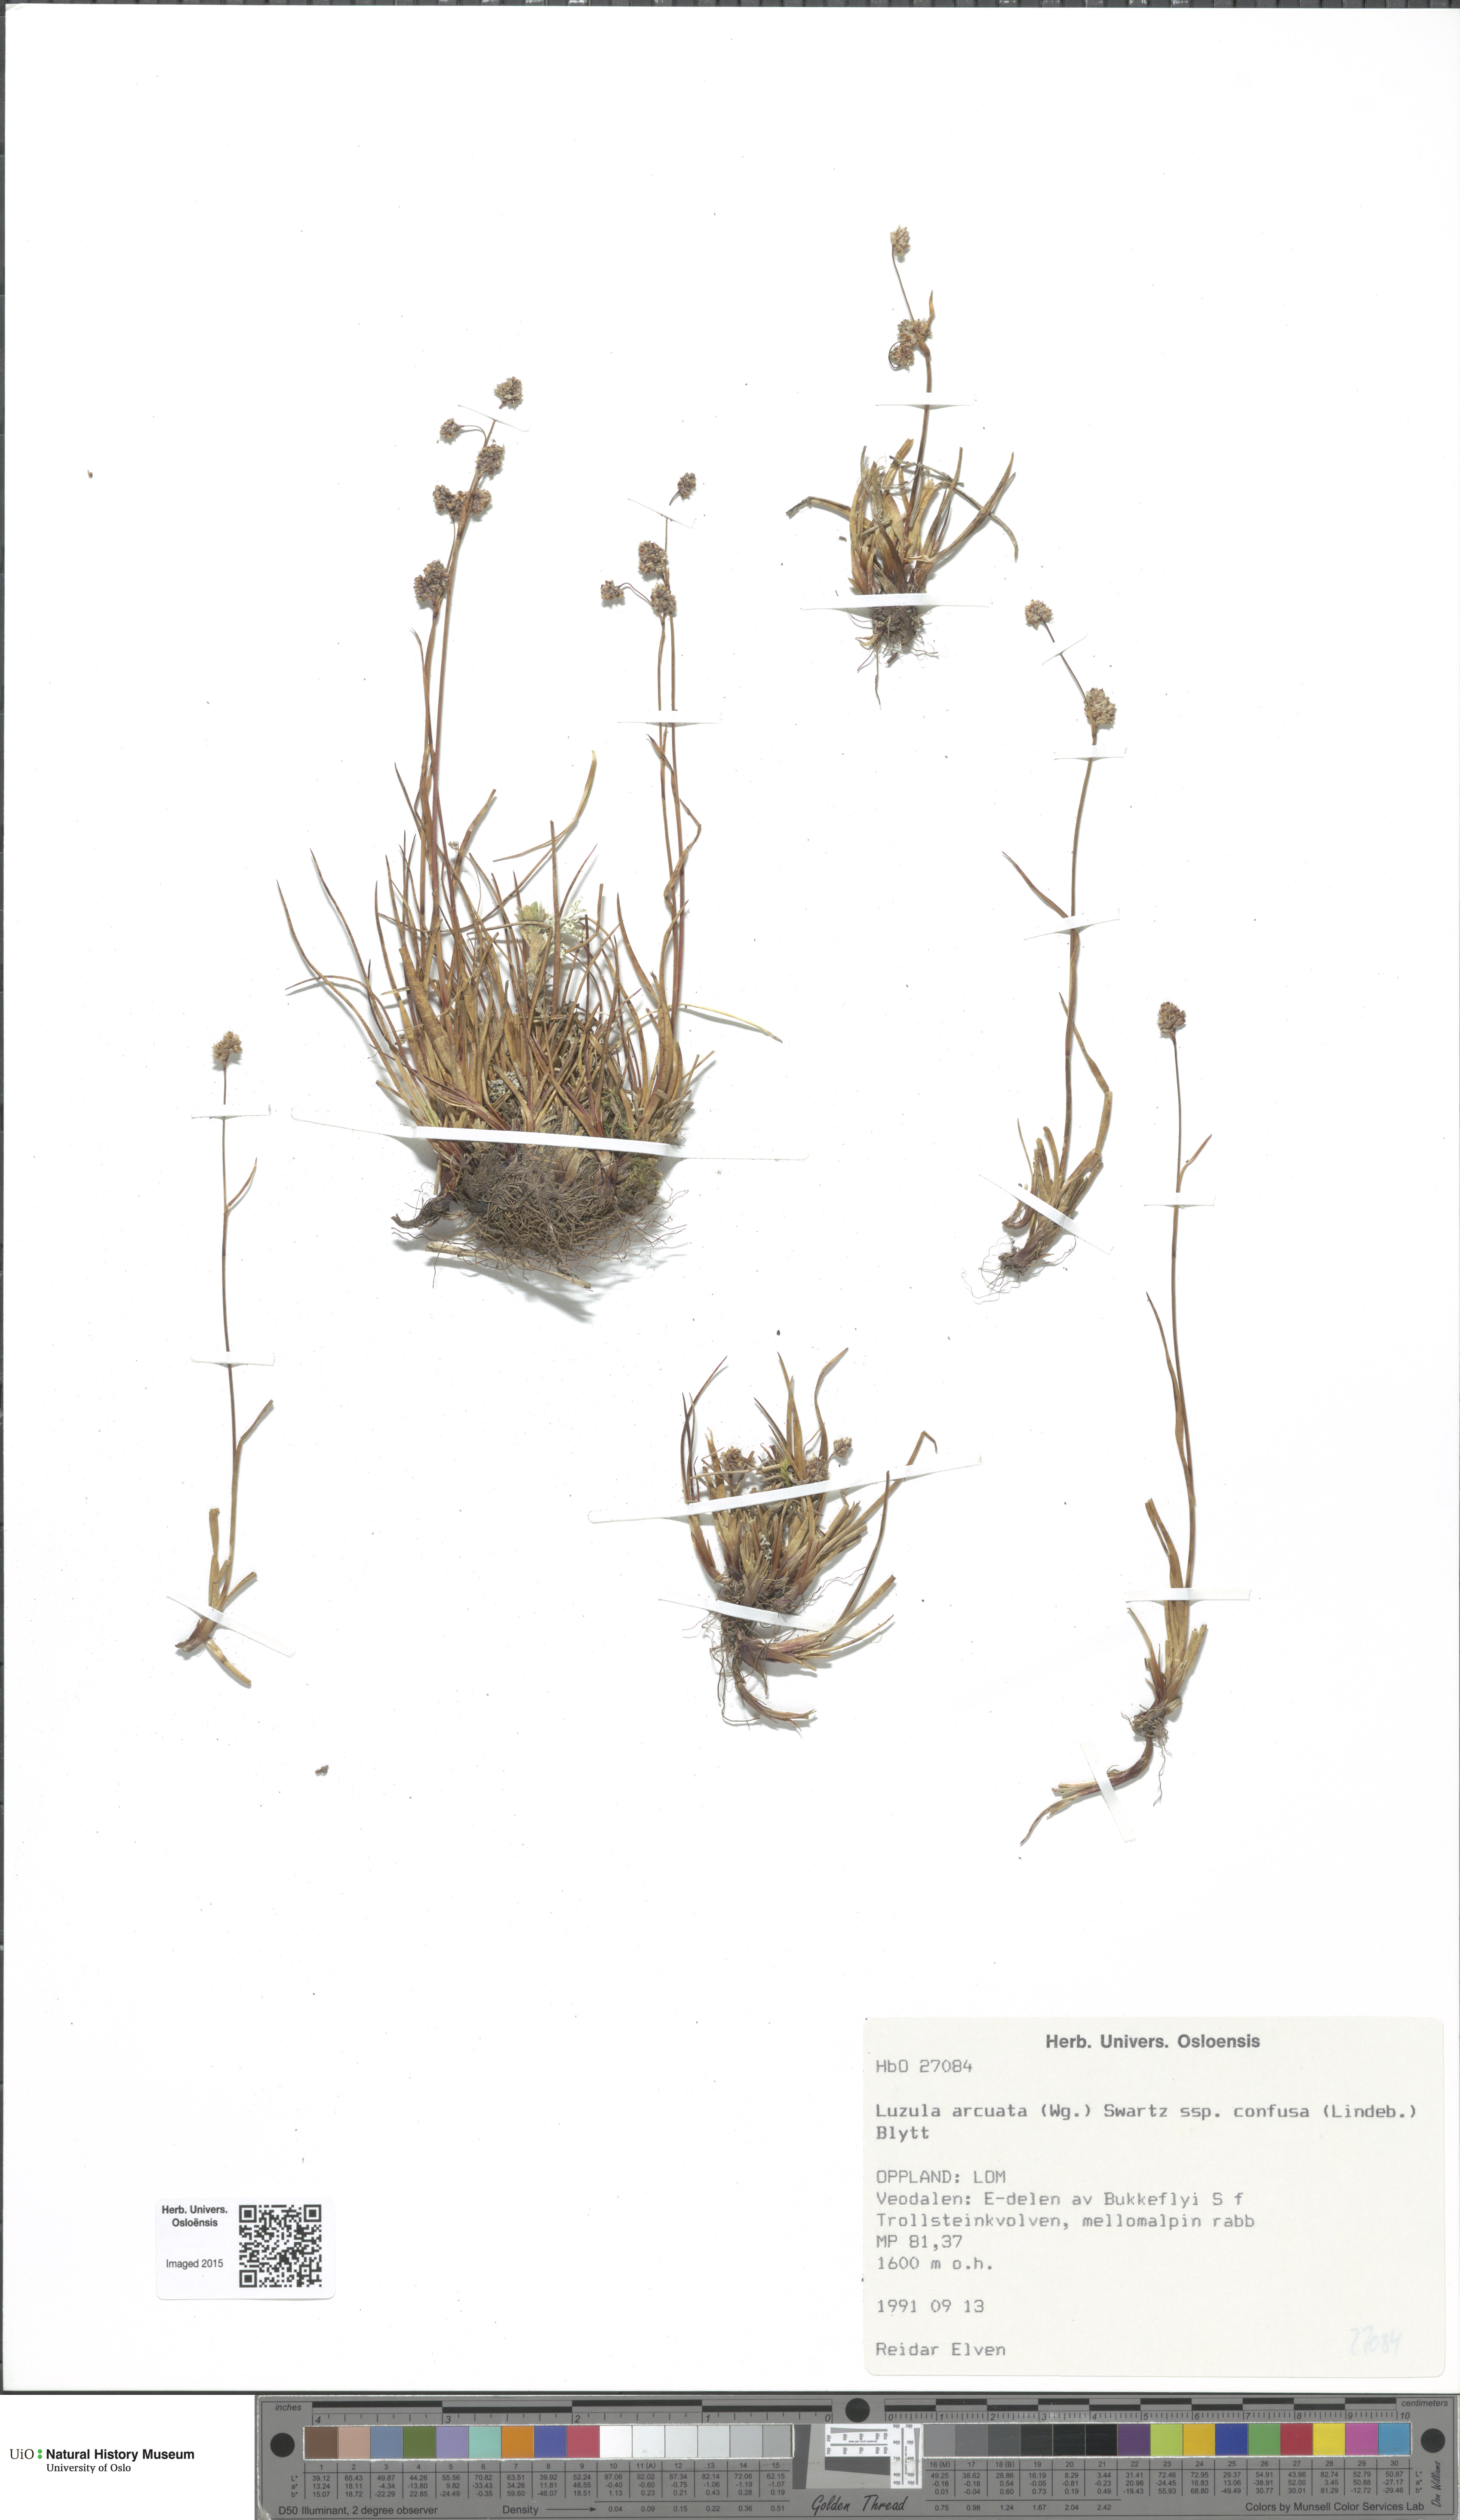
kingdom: Plantae
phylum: Tracheophyta
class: Liliopsida
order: Poales
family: Juncaceae
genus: Luzula
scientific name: Luzula confusa
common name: Northern wood rush
